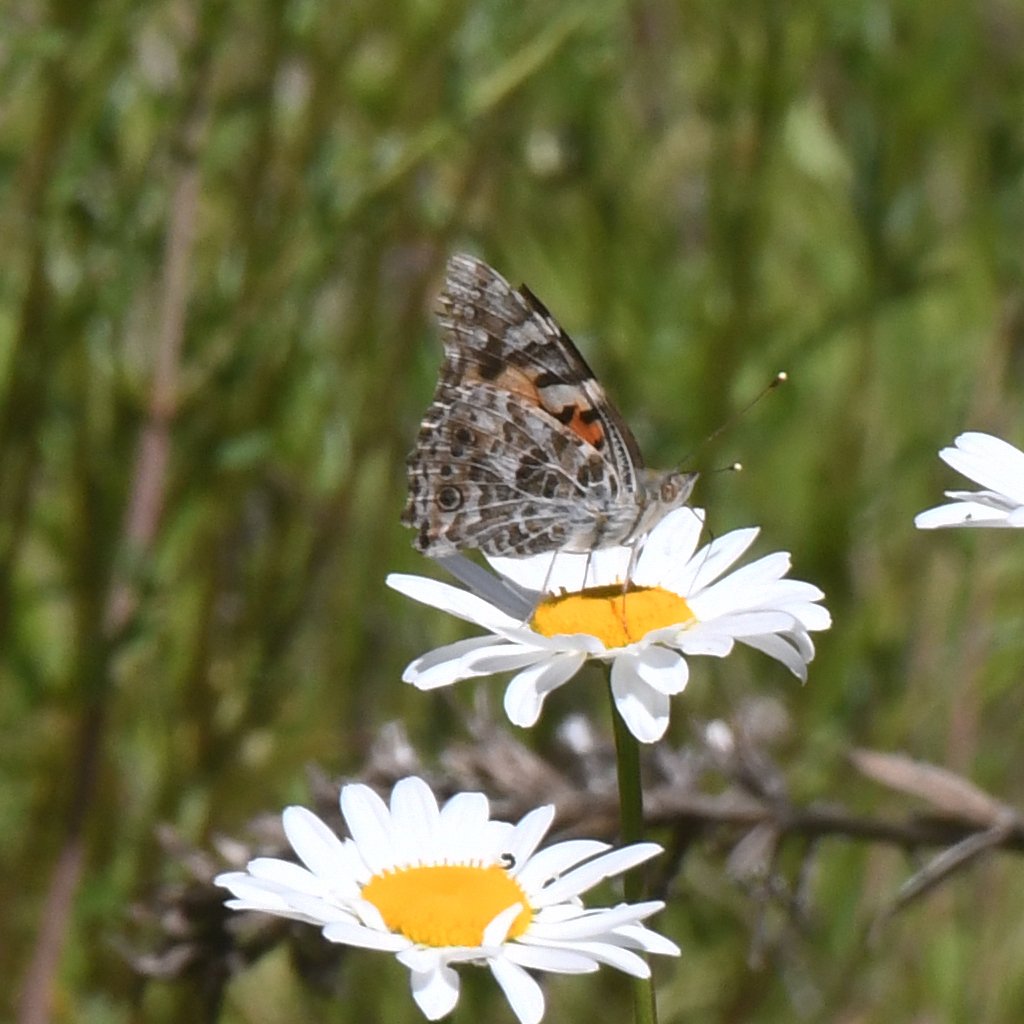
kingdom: Animalia
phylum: Arthropoda
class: Insecta
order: Lepidoptera
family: Nymphalidae
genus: Vanessa
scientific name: Vanessa cardui
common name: Painted Lady
